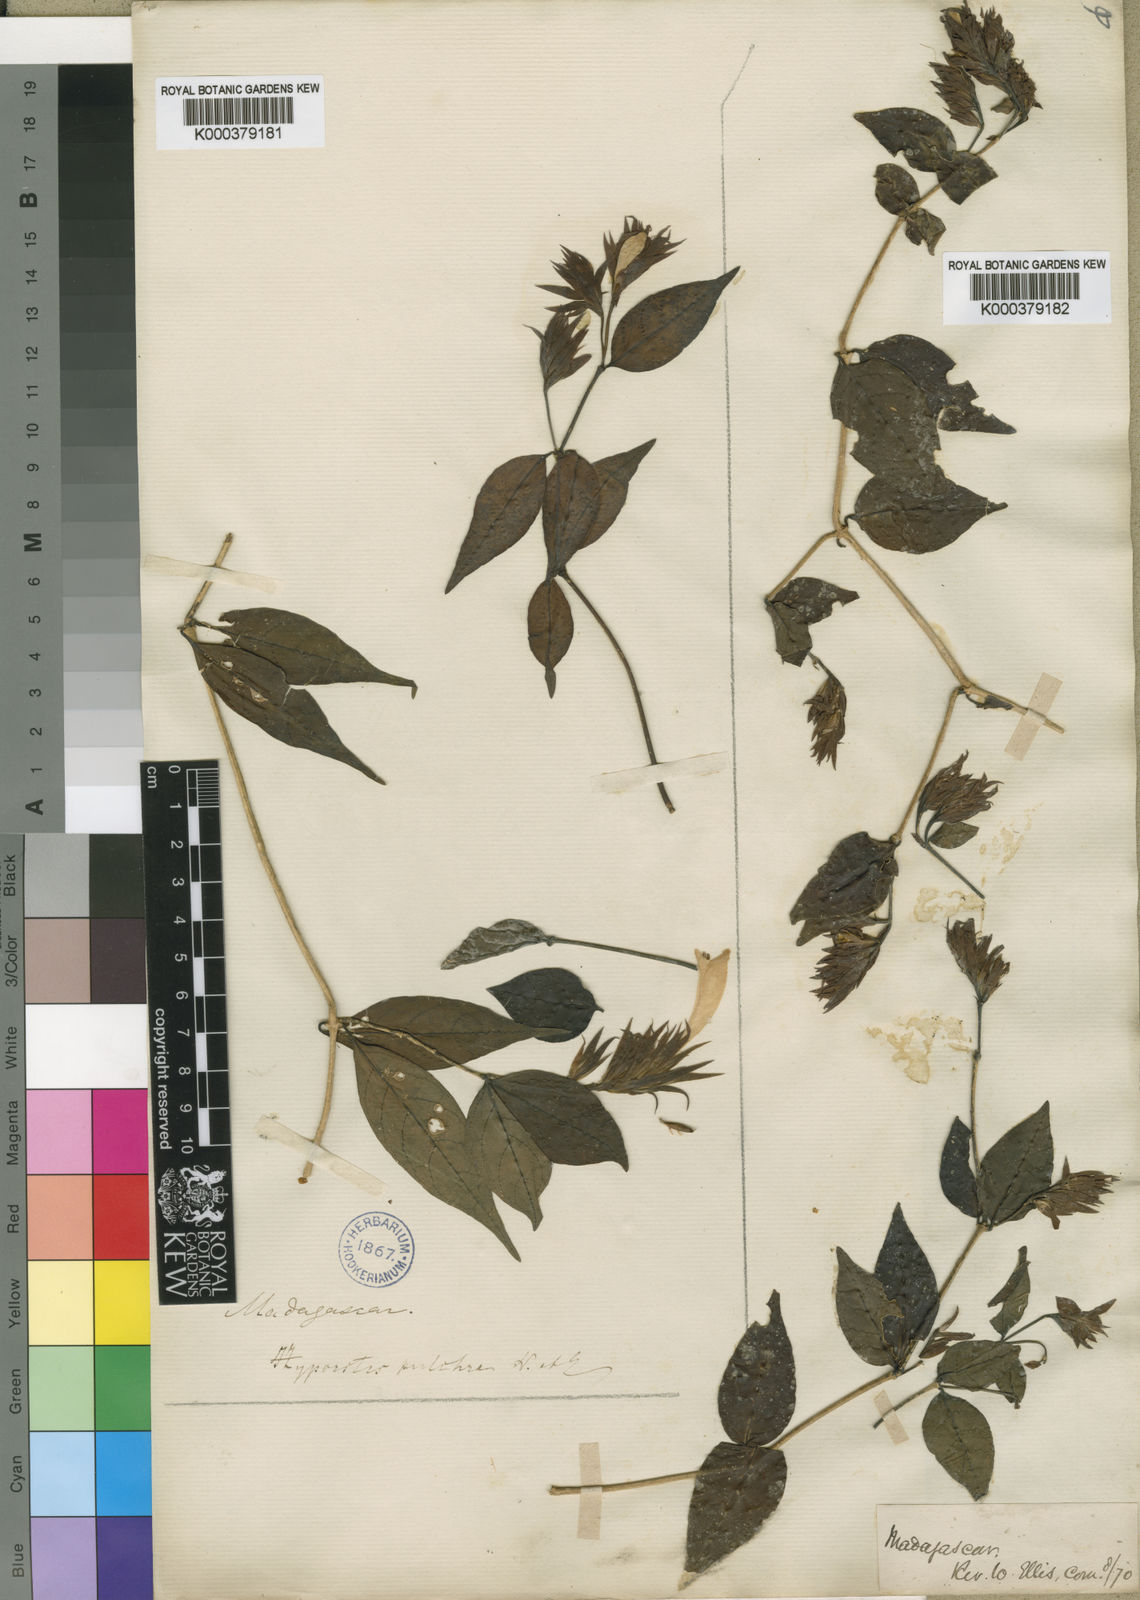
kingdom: Plantae
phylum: Tracheophyta
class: Magnoliopsida
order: Lamiales
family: Acanthaceae
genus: Hypoestes
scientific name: Hypoestes pulchra
